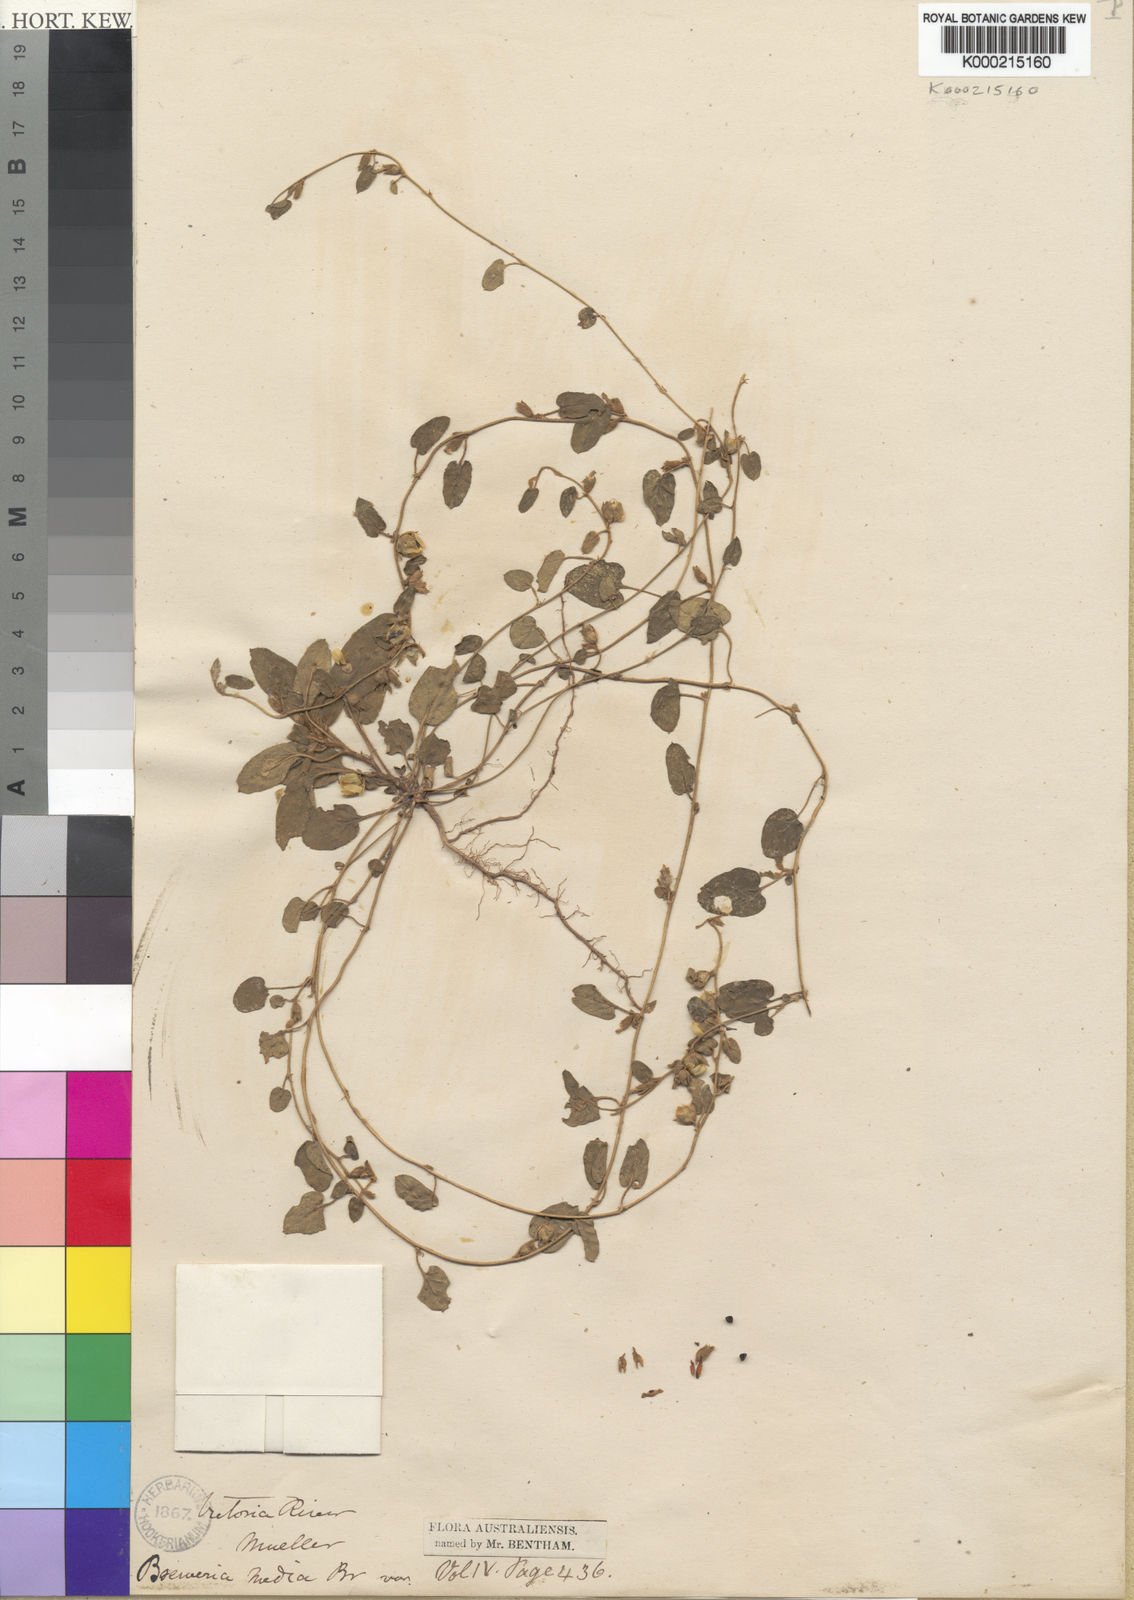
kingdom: Plantae
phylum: Tracheophyta
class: Magnoliopsida
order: Solanales
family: Convolvulaceae
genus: Bonamia
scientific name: Bonamia media
